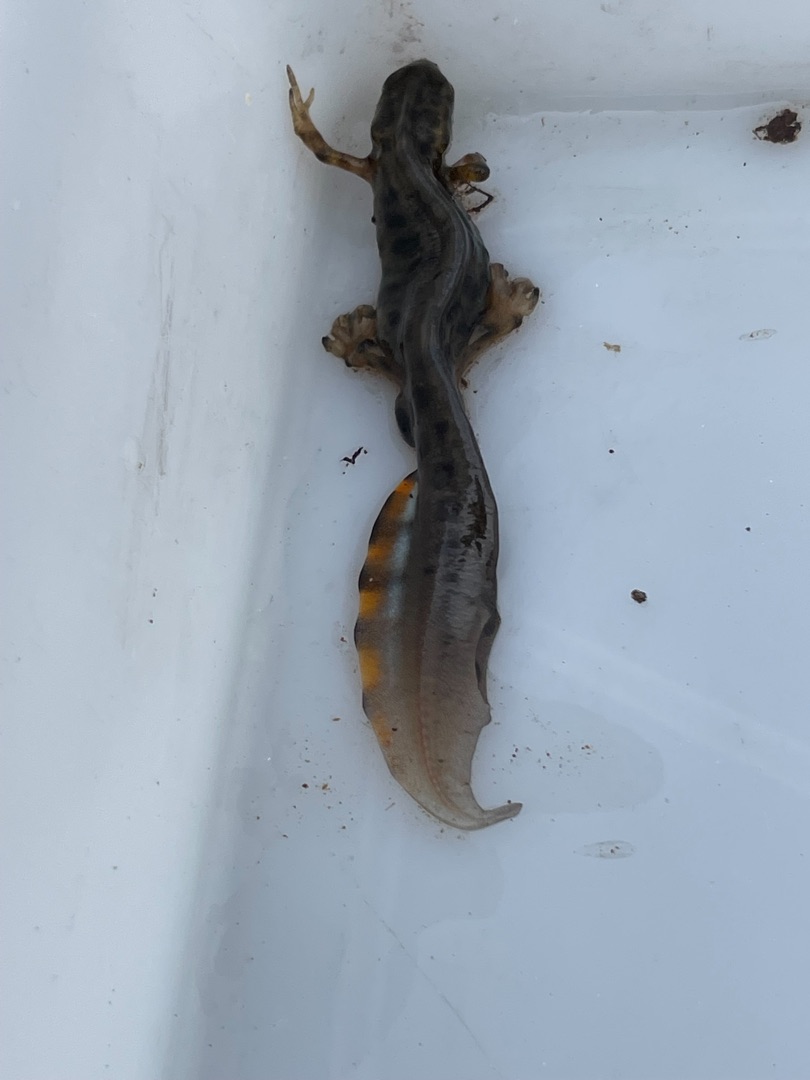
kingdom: Animalia
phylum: Chordata
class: Amphibia
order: Caudata
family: Salamandridae
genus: Lissotriton
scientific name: Lissotriton vulgaris
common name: Lille vandsalamander
